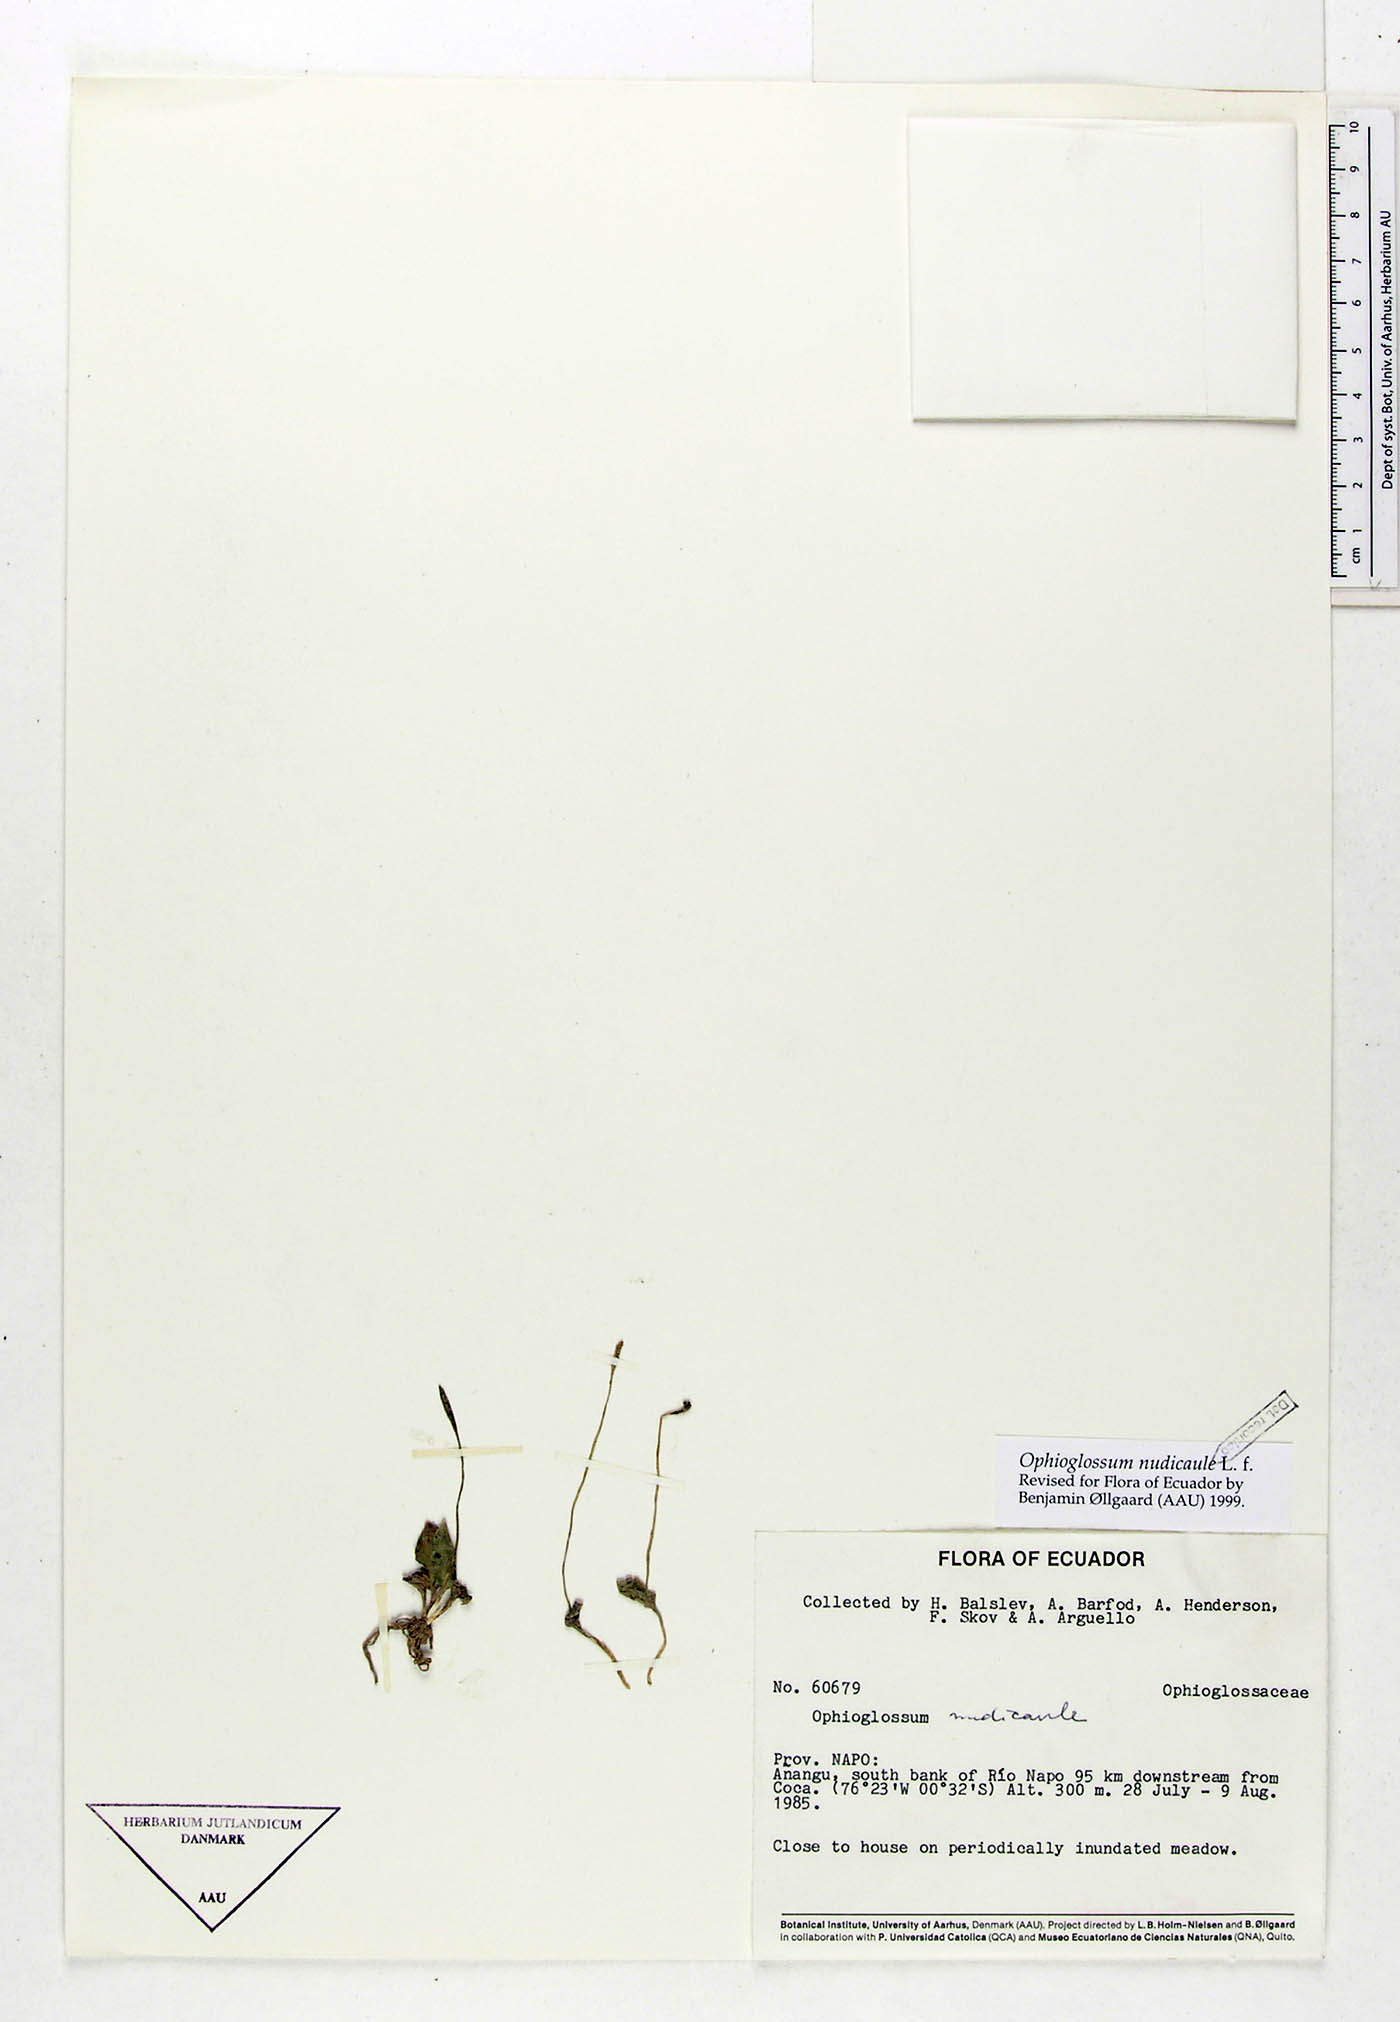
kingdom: Plantae
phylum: Tracheophyta
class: Polypodiopsida
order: Ophioglossales
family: Ophioglossaceae
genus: Ophioglossum
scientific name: Ophioglossum nudicaule
